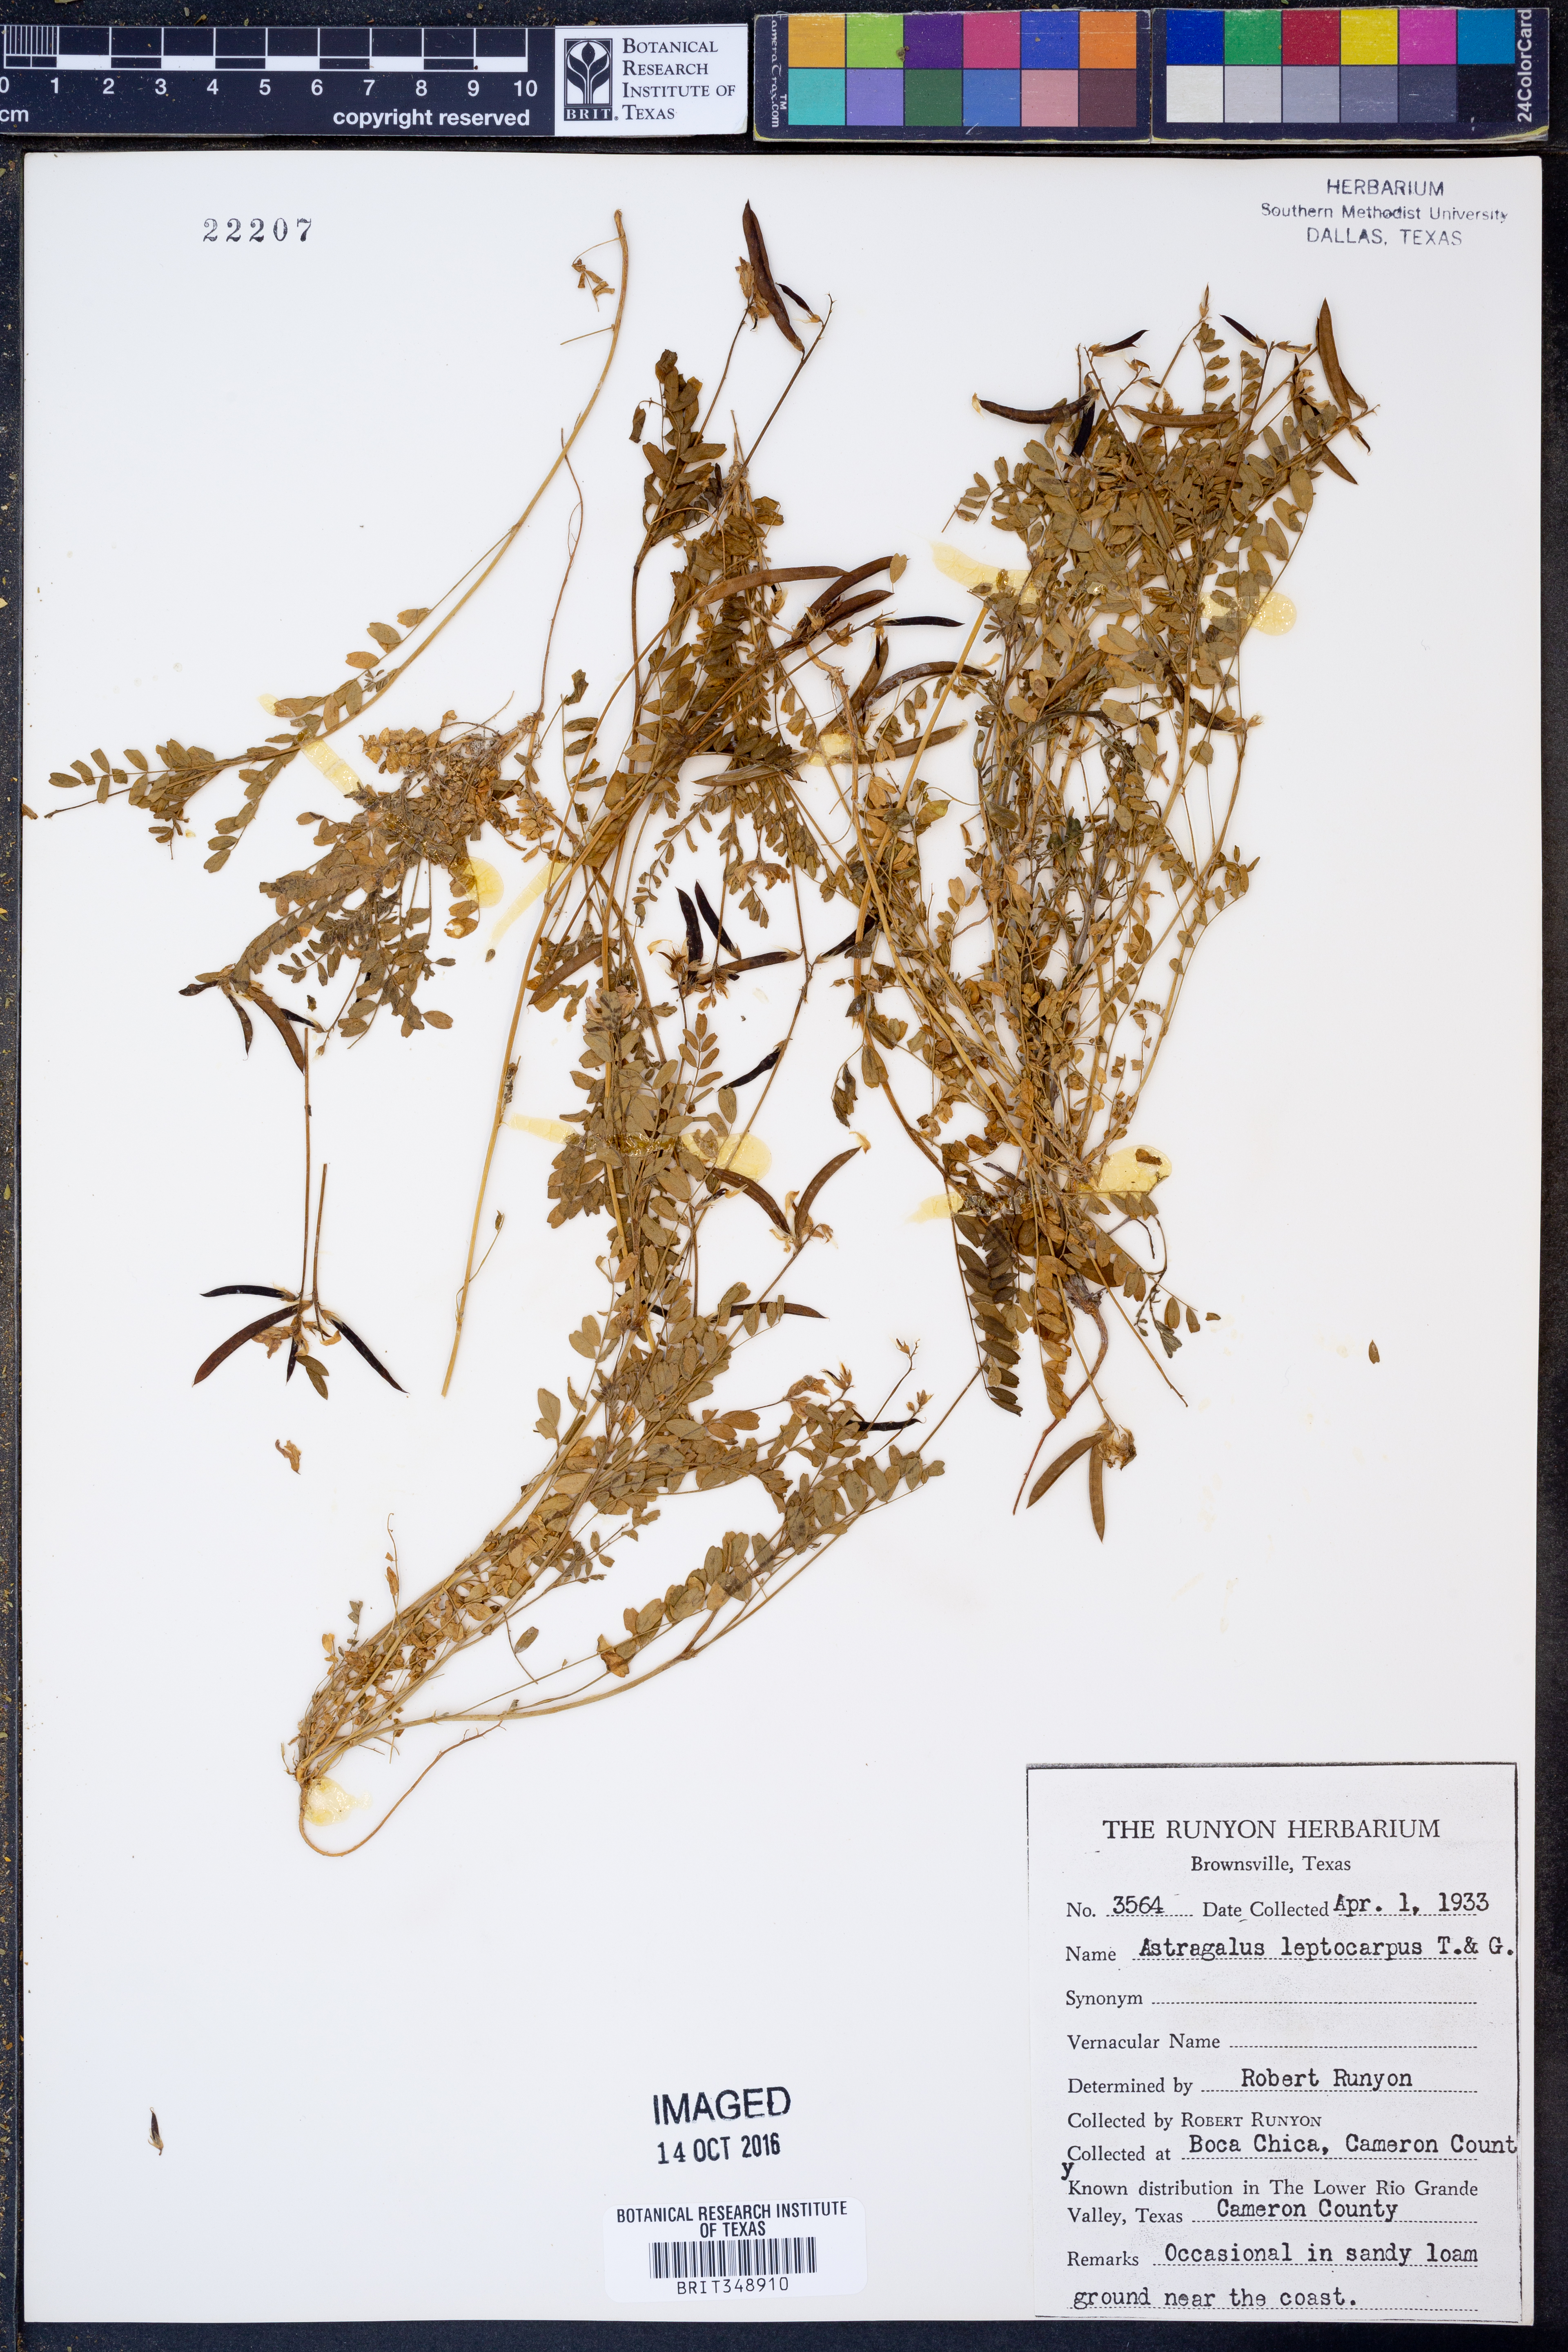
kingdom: Plantae
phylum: Tracheophyta
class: Magnoliopsida
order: Fabales
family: Fabaceae
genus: Astragalus
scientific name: Astragalus leptocarpus
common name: Bodkin milk-vetch
